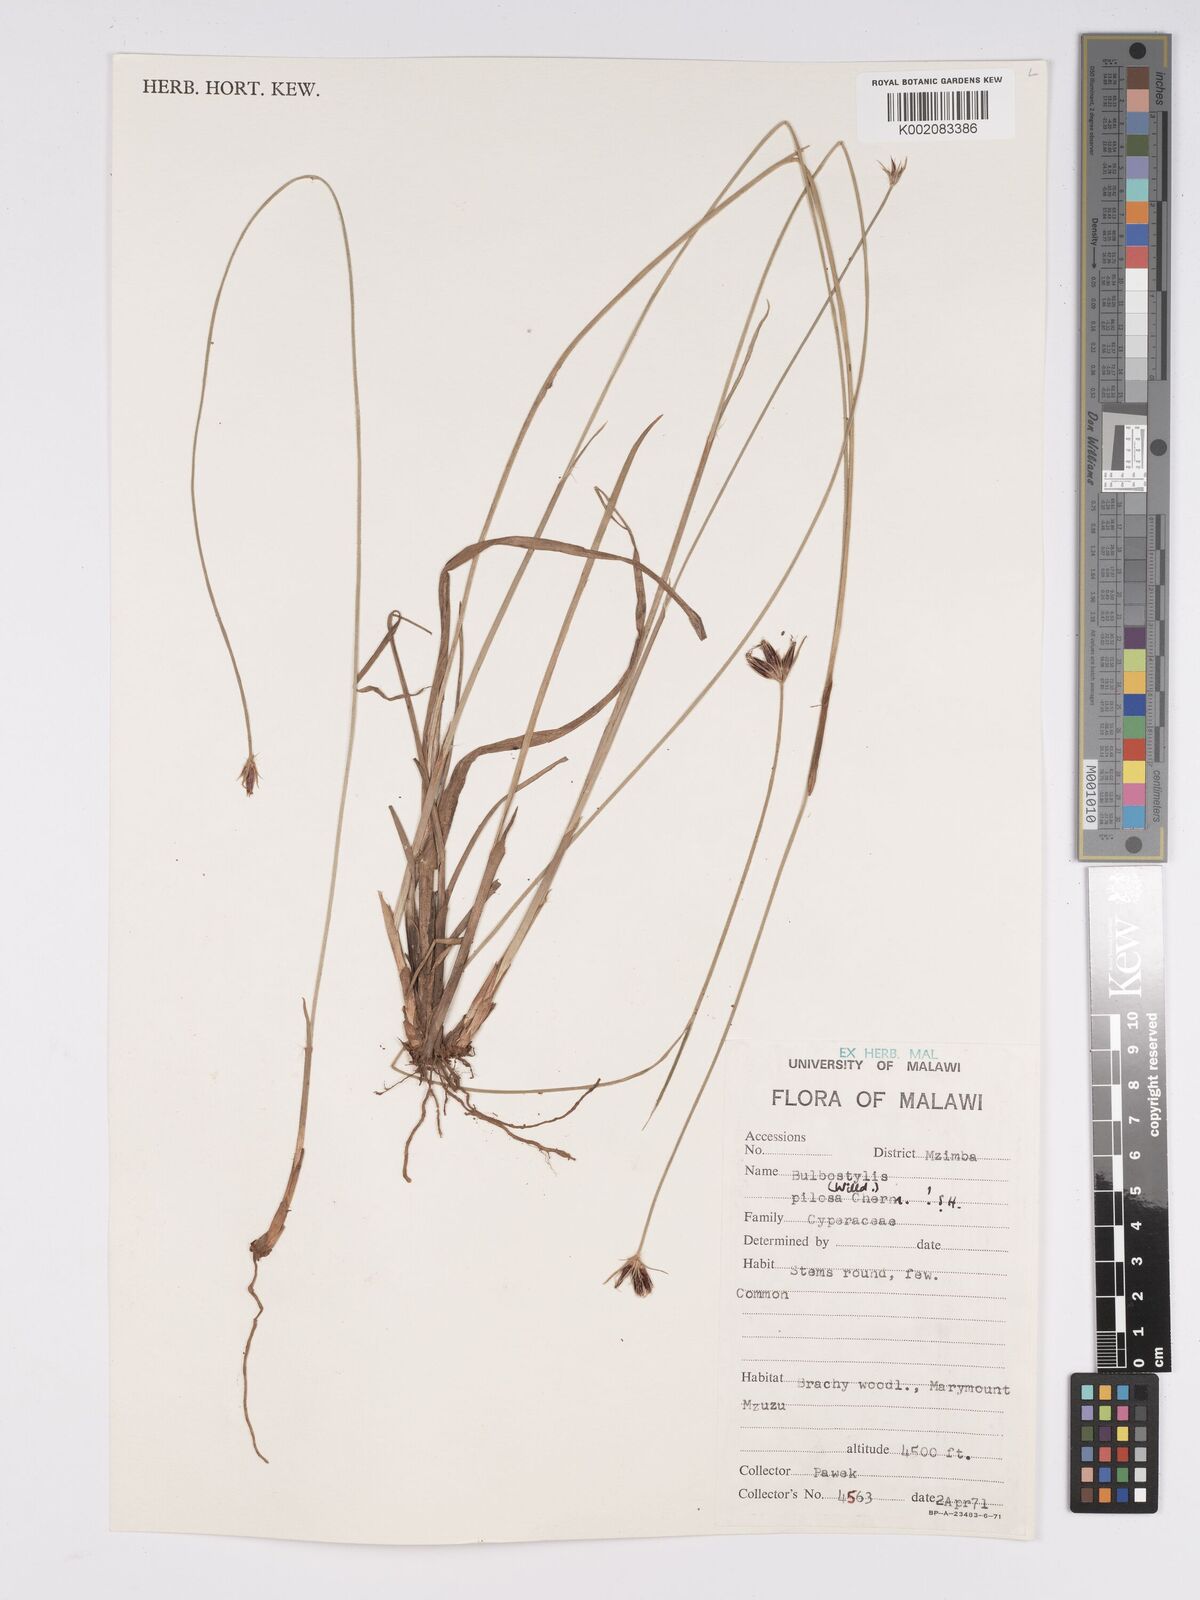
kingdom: Plantae
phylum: Tracheophyta
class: Liliopsida
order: Poales
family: Cyperaceae
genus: Bulbostylis
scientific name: Bulbostylis pilosa
